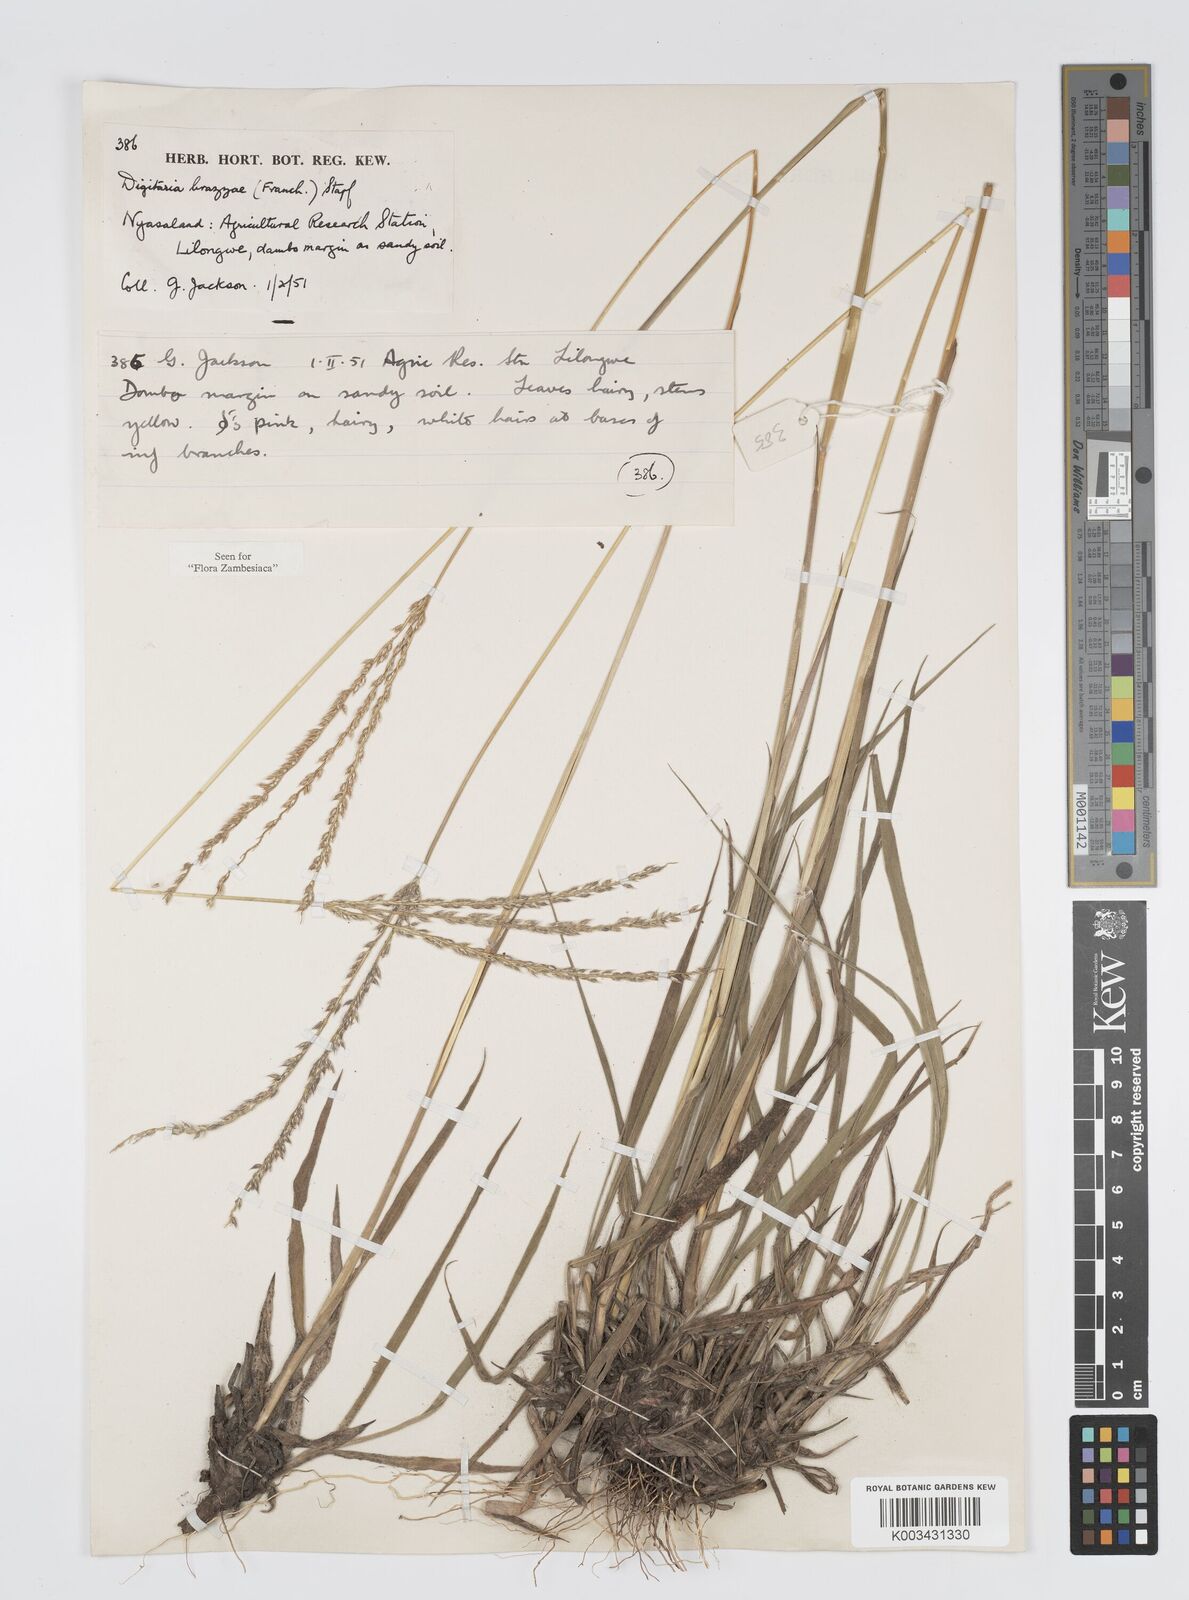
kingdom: Plantae
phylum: Tracheophyta
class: Liliopsida
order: Poales
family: Poaceae
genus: Digitaria
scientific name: Digitaria brazzae
